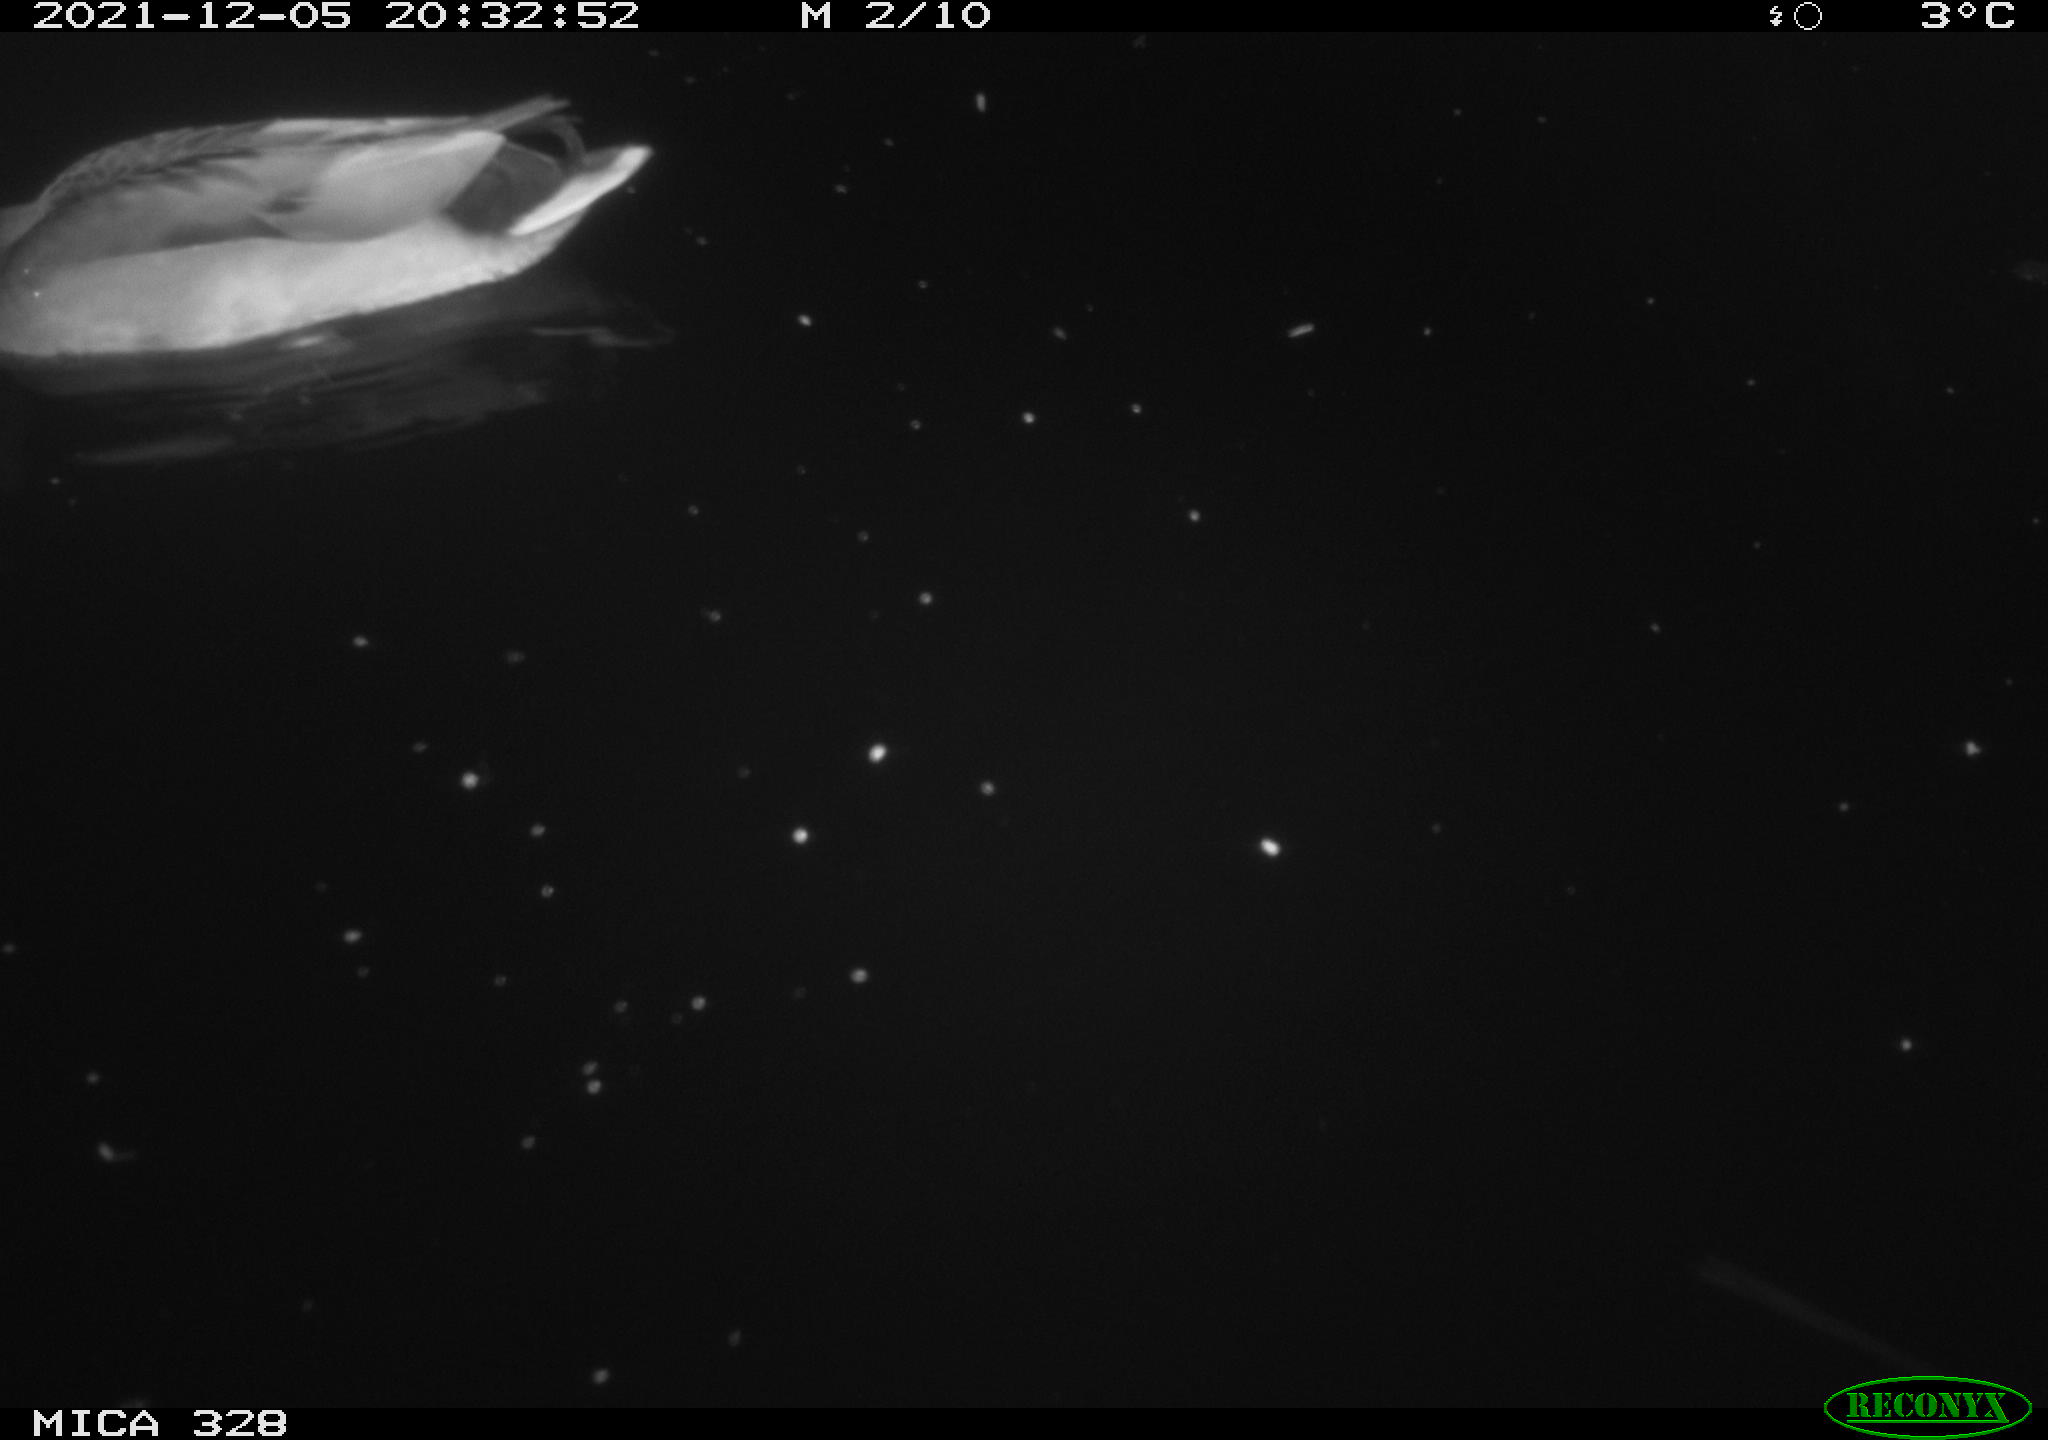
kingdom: Animalia
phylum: Chordata
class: Aves
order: Anseriformes
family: Anatidae
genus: Anas
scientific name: Anas platyrhynchos
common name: Mallard
